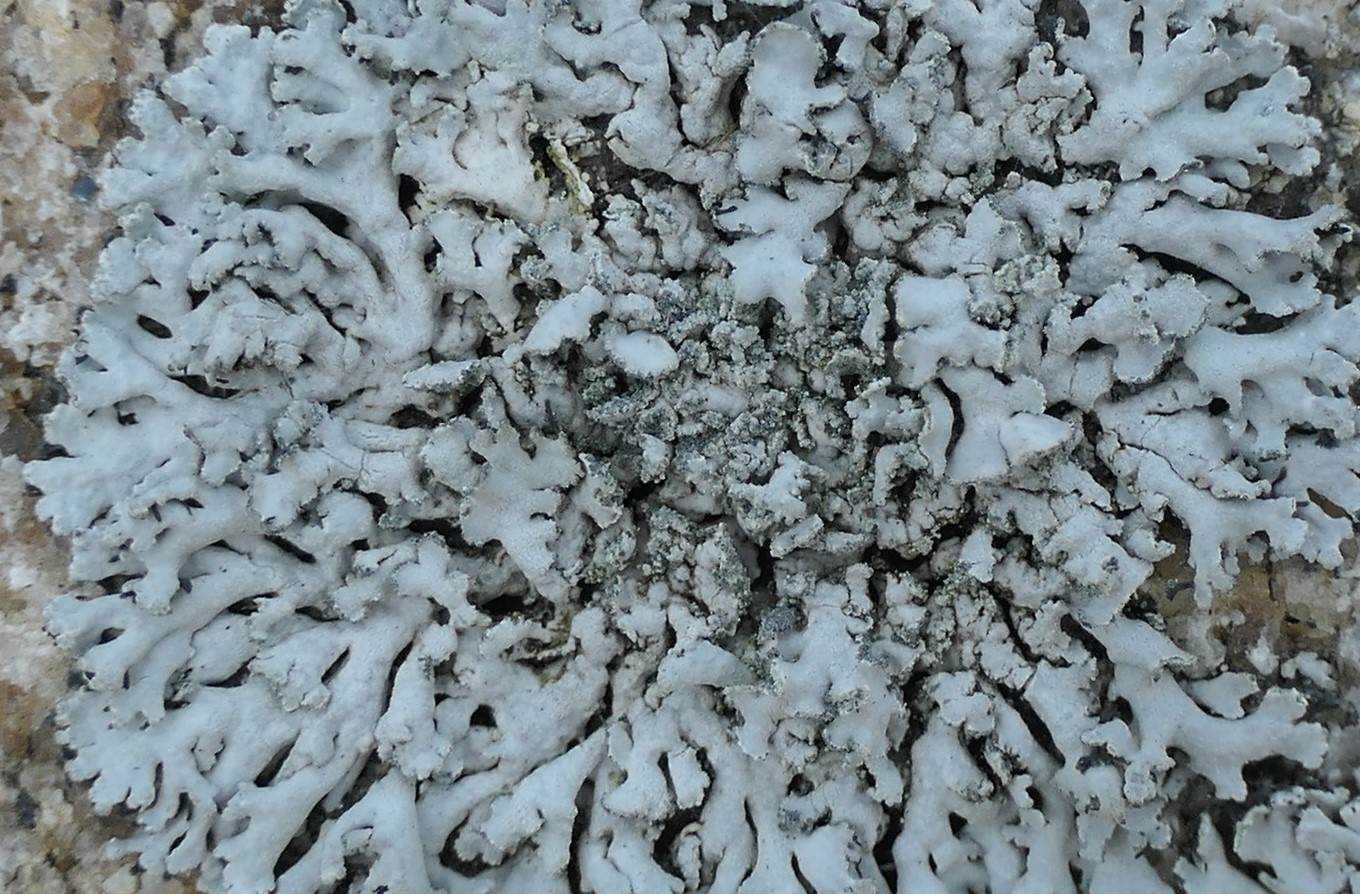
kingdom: Fungi
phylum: Ascomycota
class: Lecanoromycetes
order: Caliciales
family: Physciaceae
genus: Physcia
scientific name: Physcia dubia
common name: fuglestens-rosetlav
